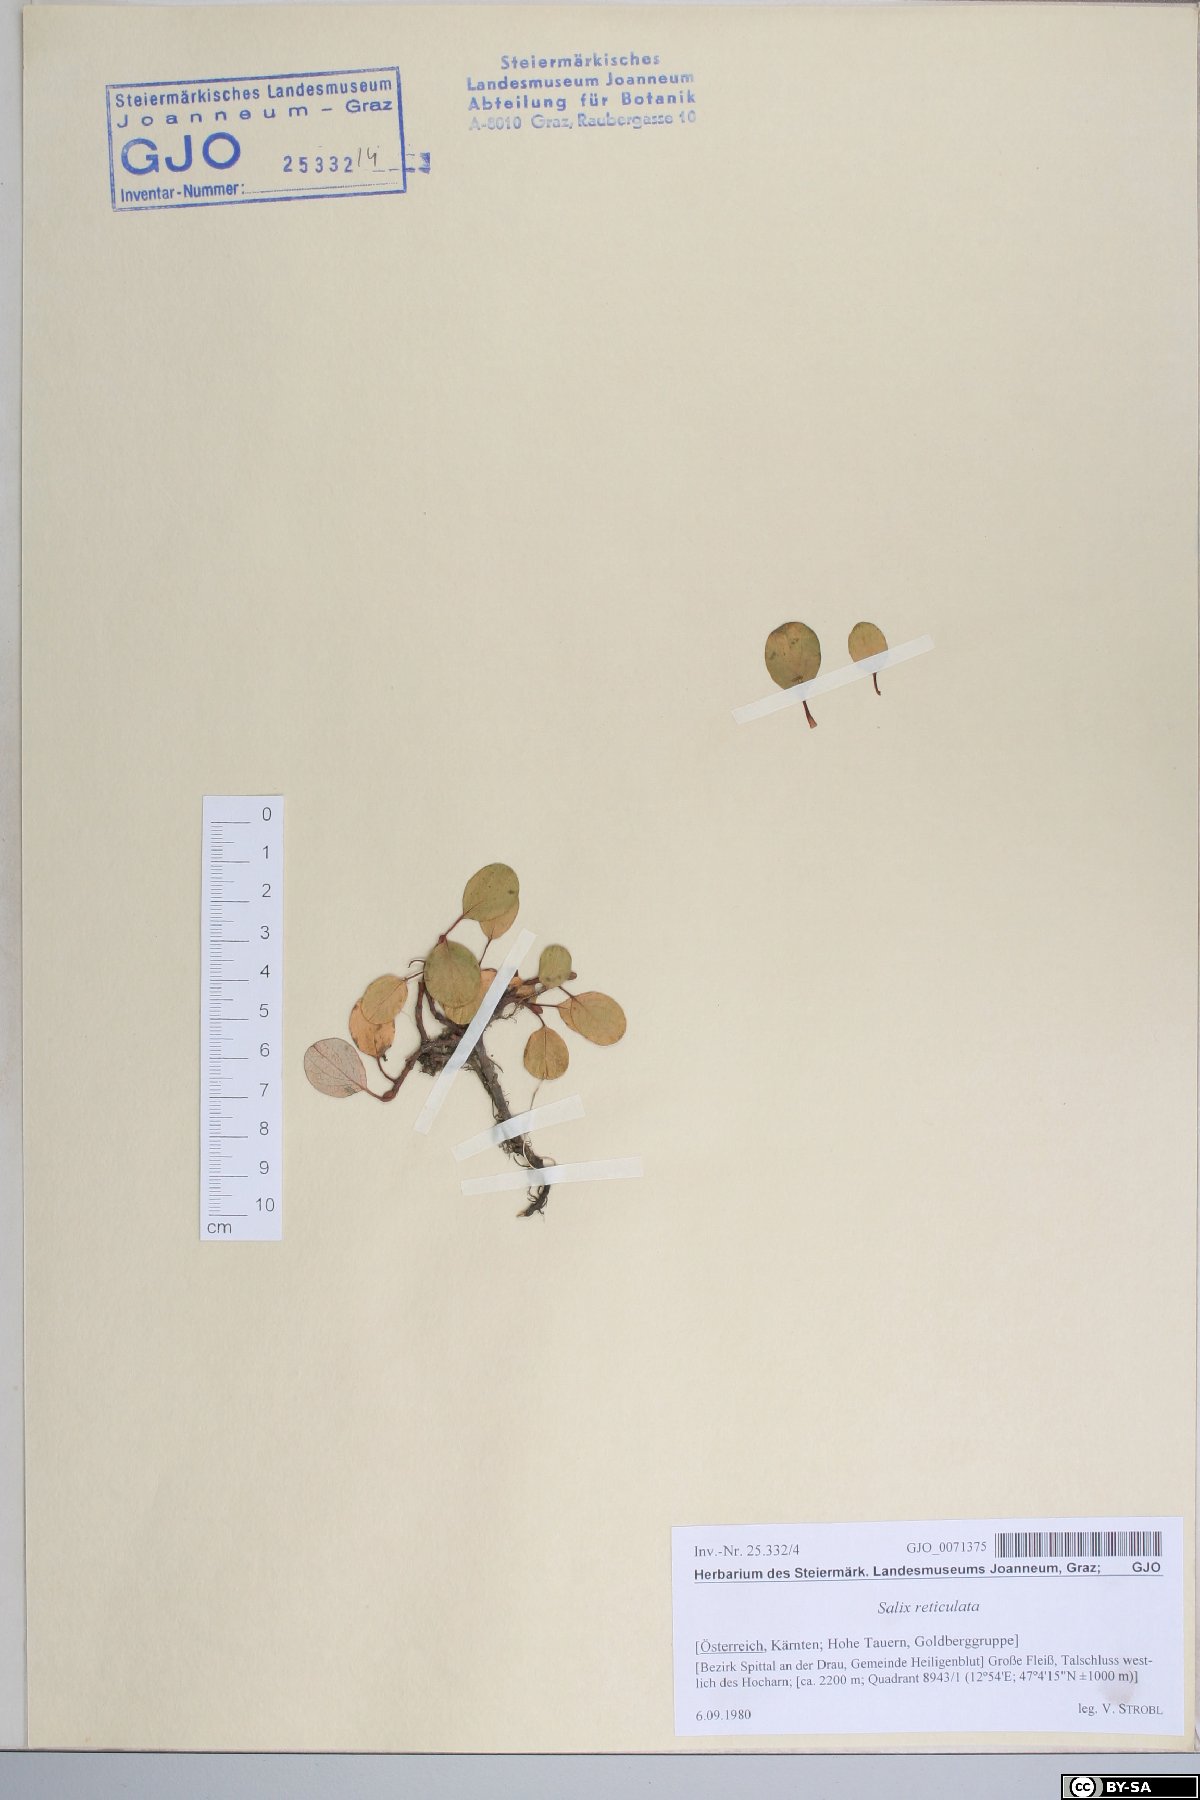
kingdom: Plantae
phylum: Tracheophyta
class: Magnoliopsida
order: Malpighiales
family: Salicaceae
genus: Salix
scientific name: Salix reticulata
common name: Net-leaved willow
